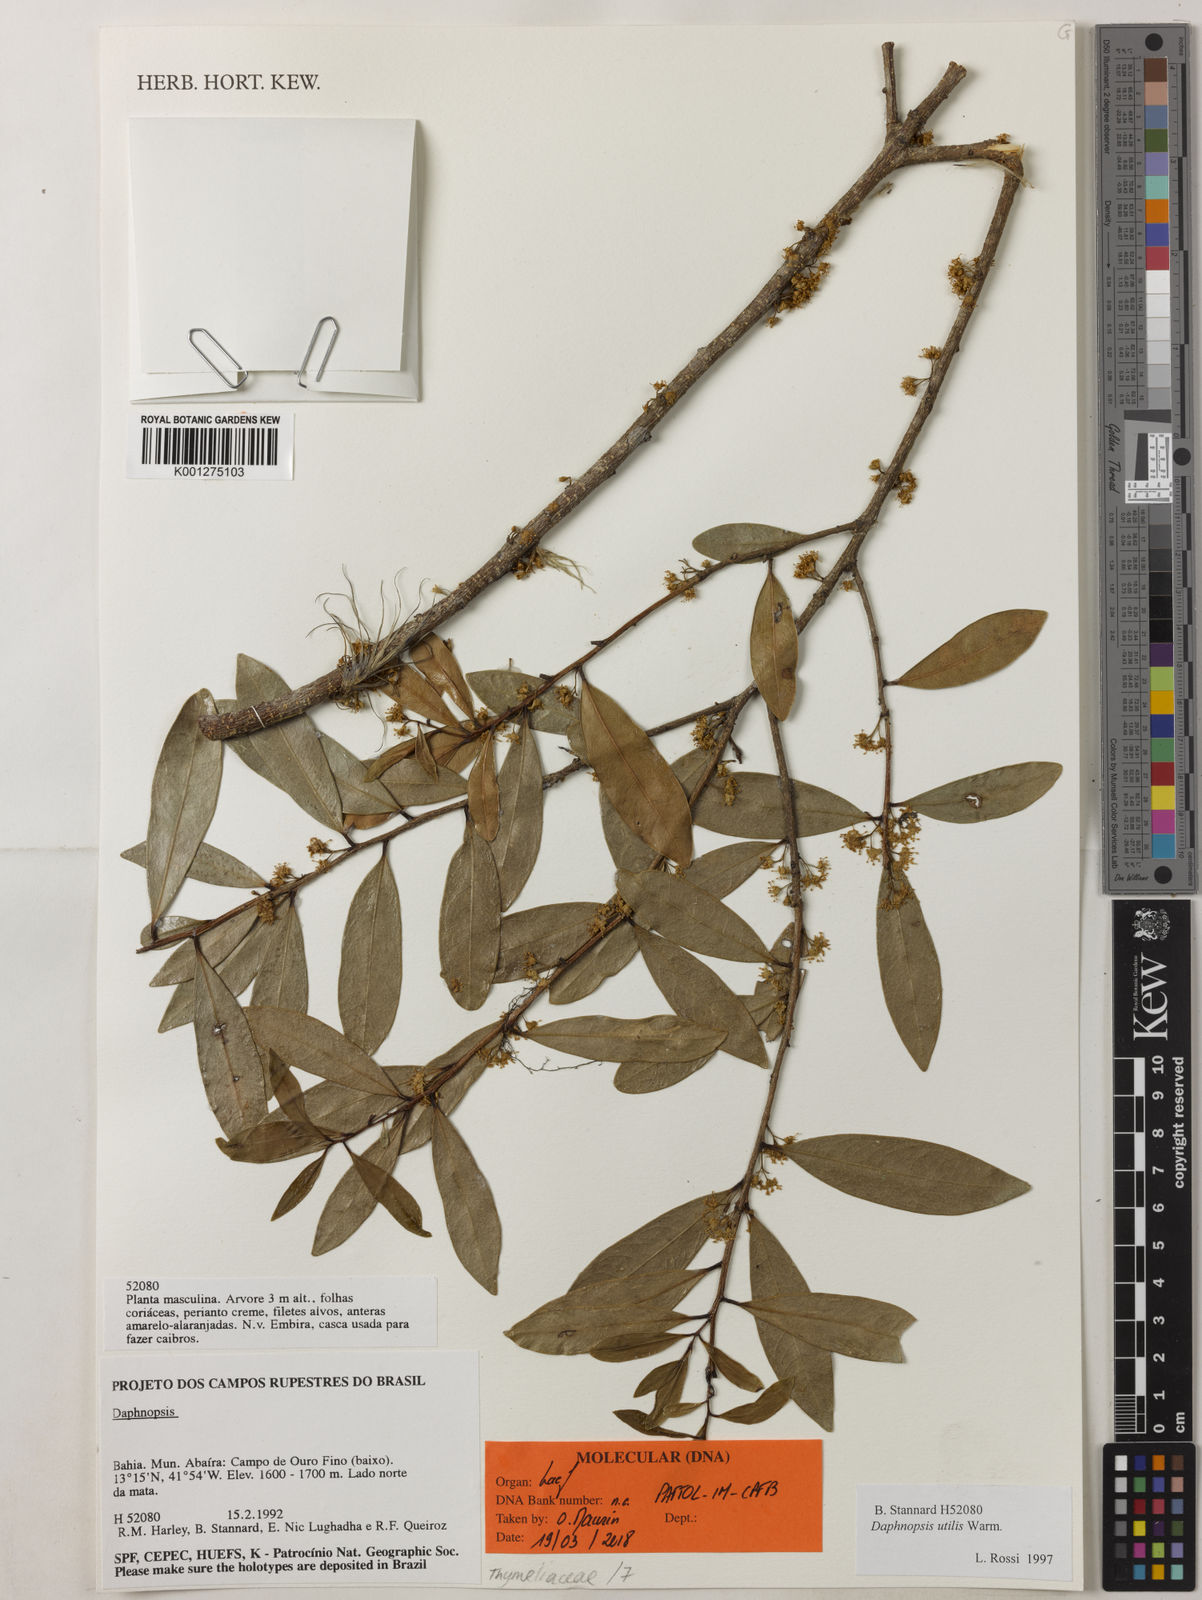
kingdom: Plantae
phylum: Tracheophyta
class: Magnoliopsida
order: Malvales
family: Thymelaeaceae
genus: Daphnopsis
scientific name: Daphnopsis utilis
